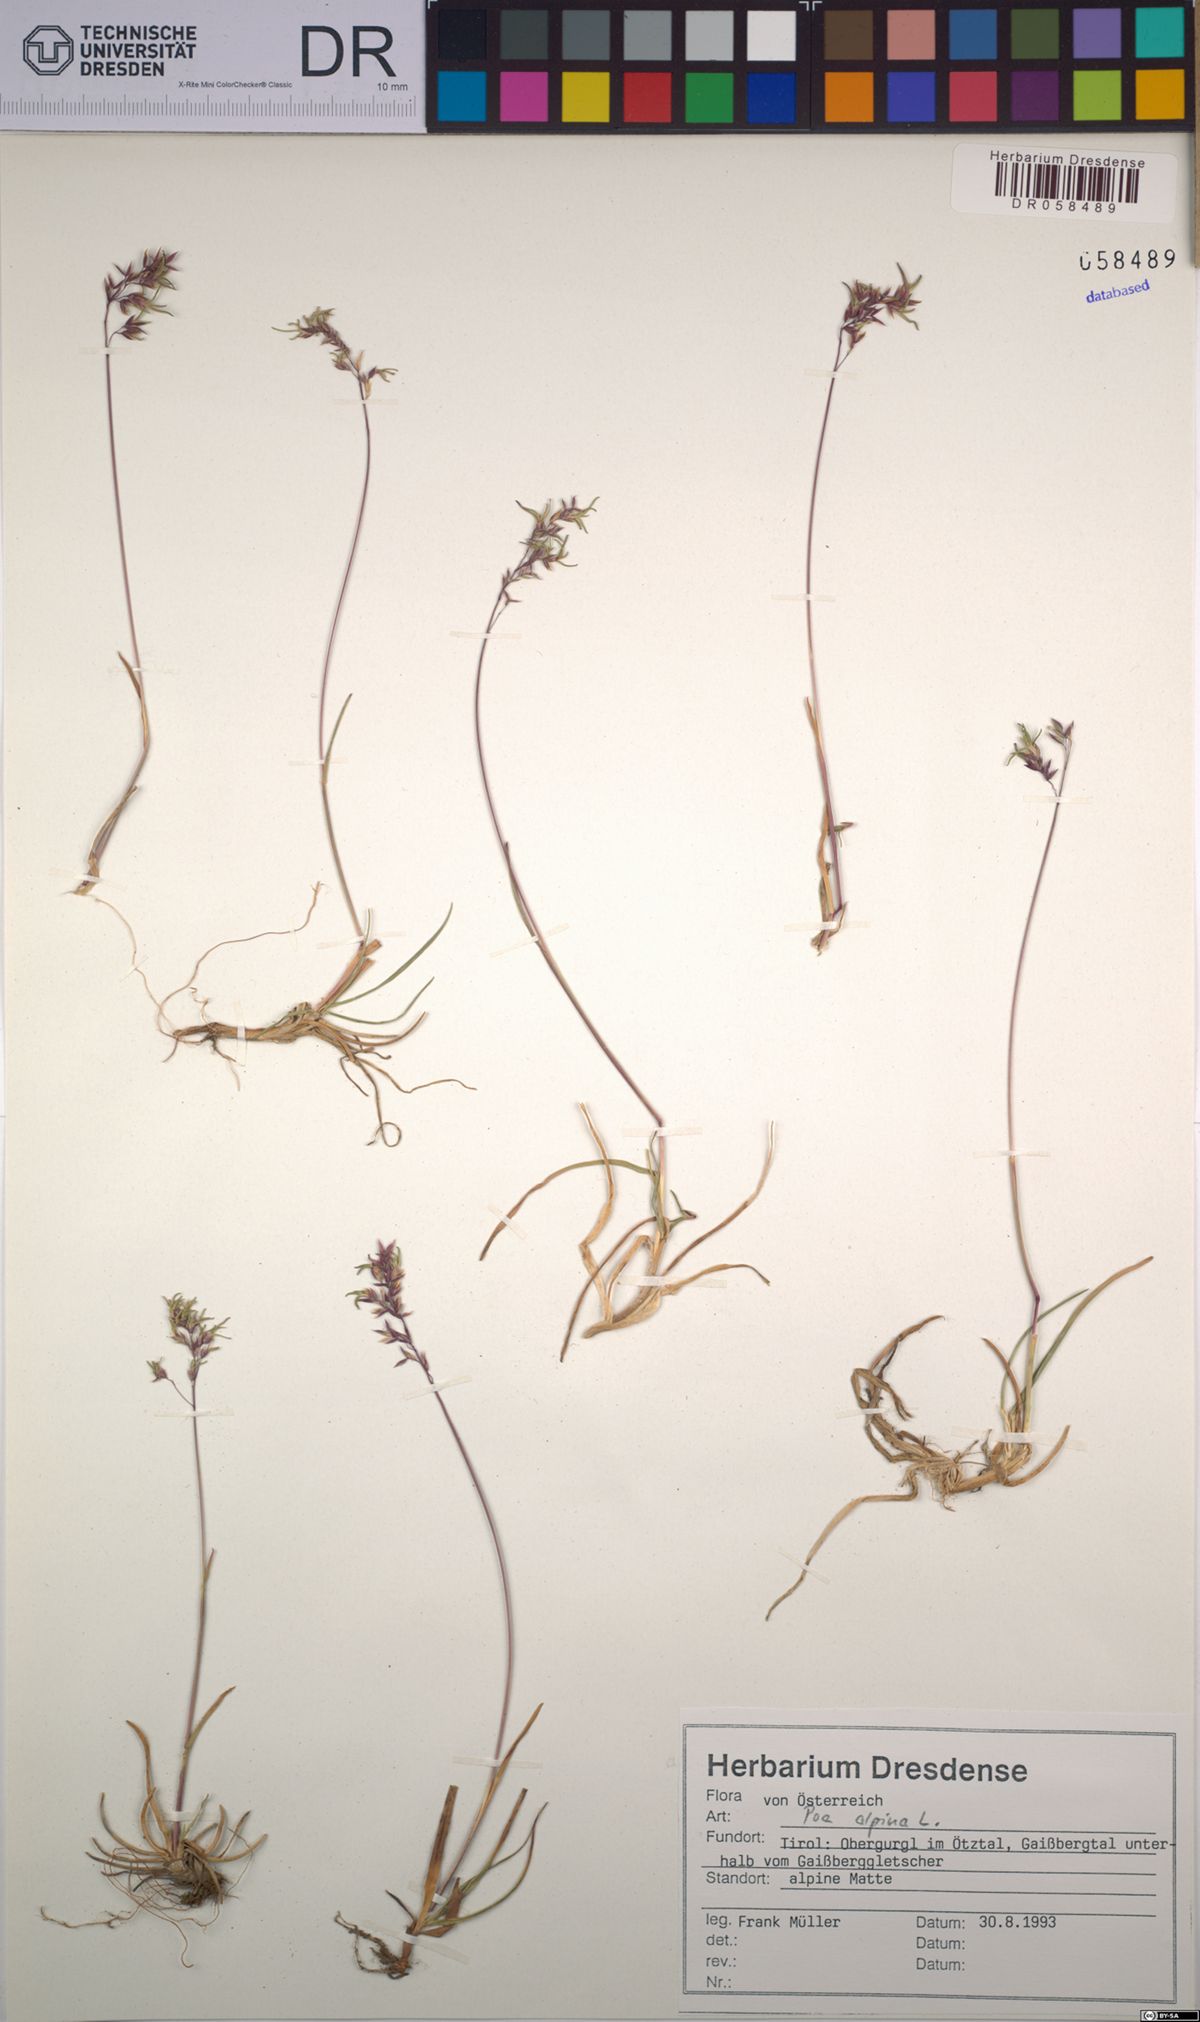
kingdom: Plantae
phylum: Tracheophyta
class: Liliopsida
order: Poales
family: Poaceae
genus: Poa
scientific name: Poa alpina
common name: Alpine bluegrass
